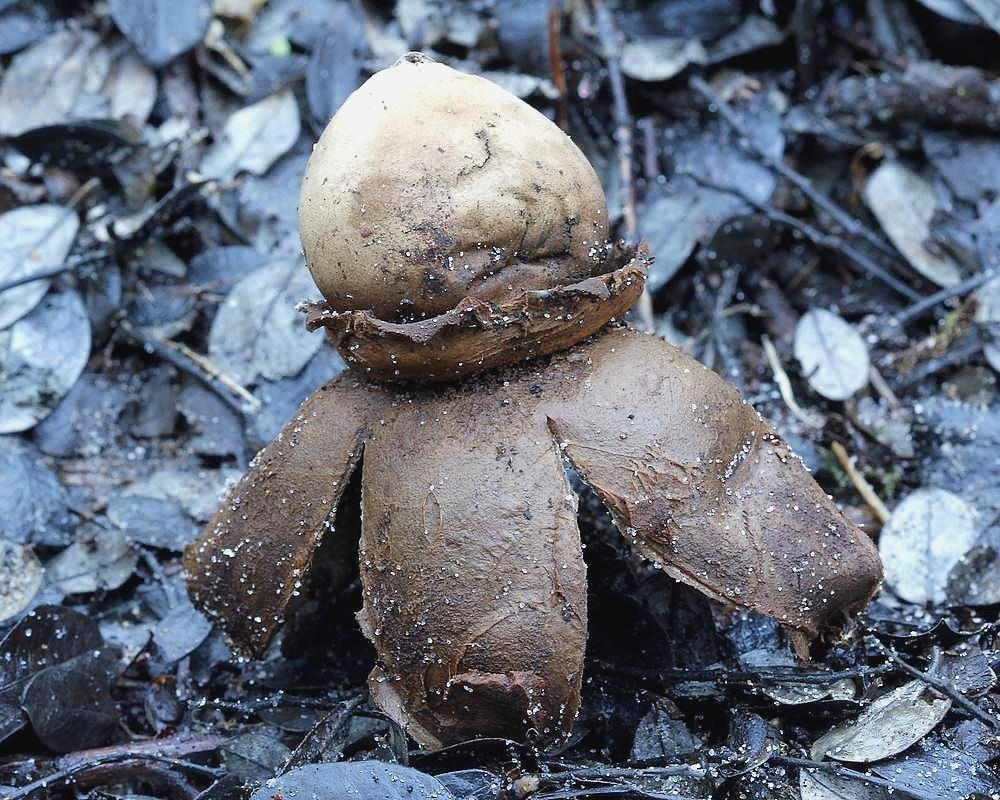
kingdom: Fungi
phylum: Basidiomycota
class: Agaricomycetes
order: Geastrales
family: Geastraceae
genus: Geastrum
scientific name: Geastrum michelianum
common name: kødet stjernebold
